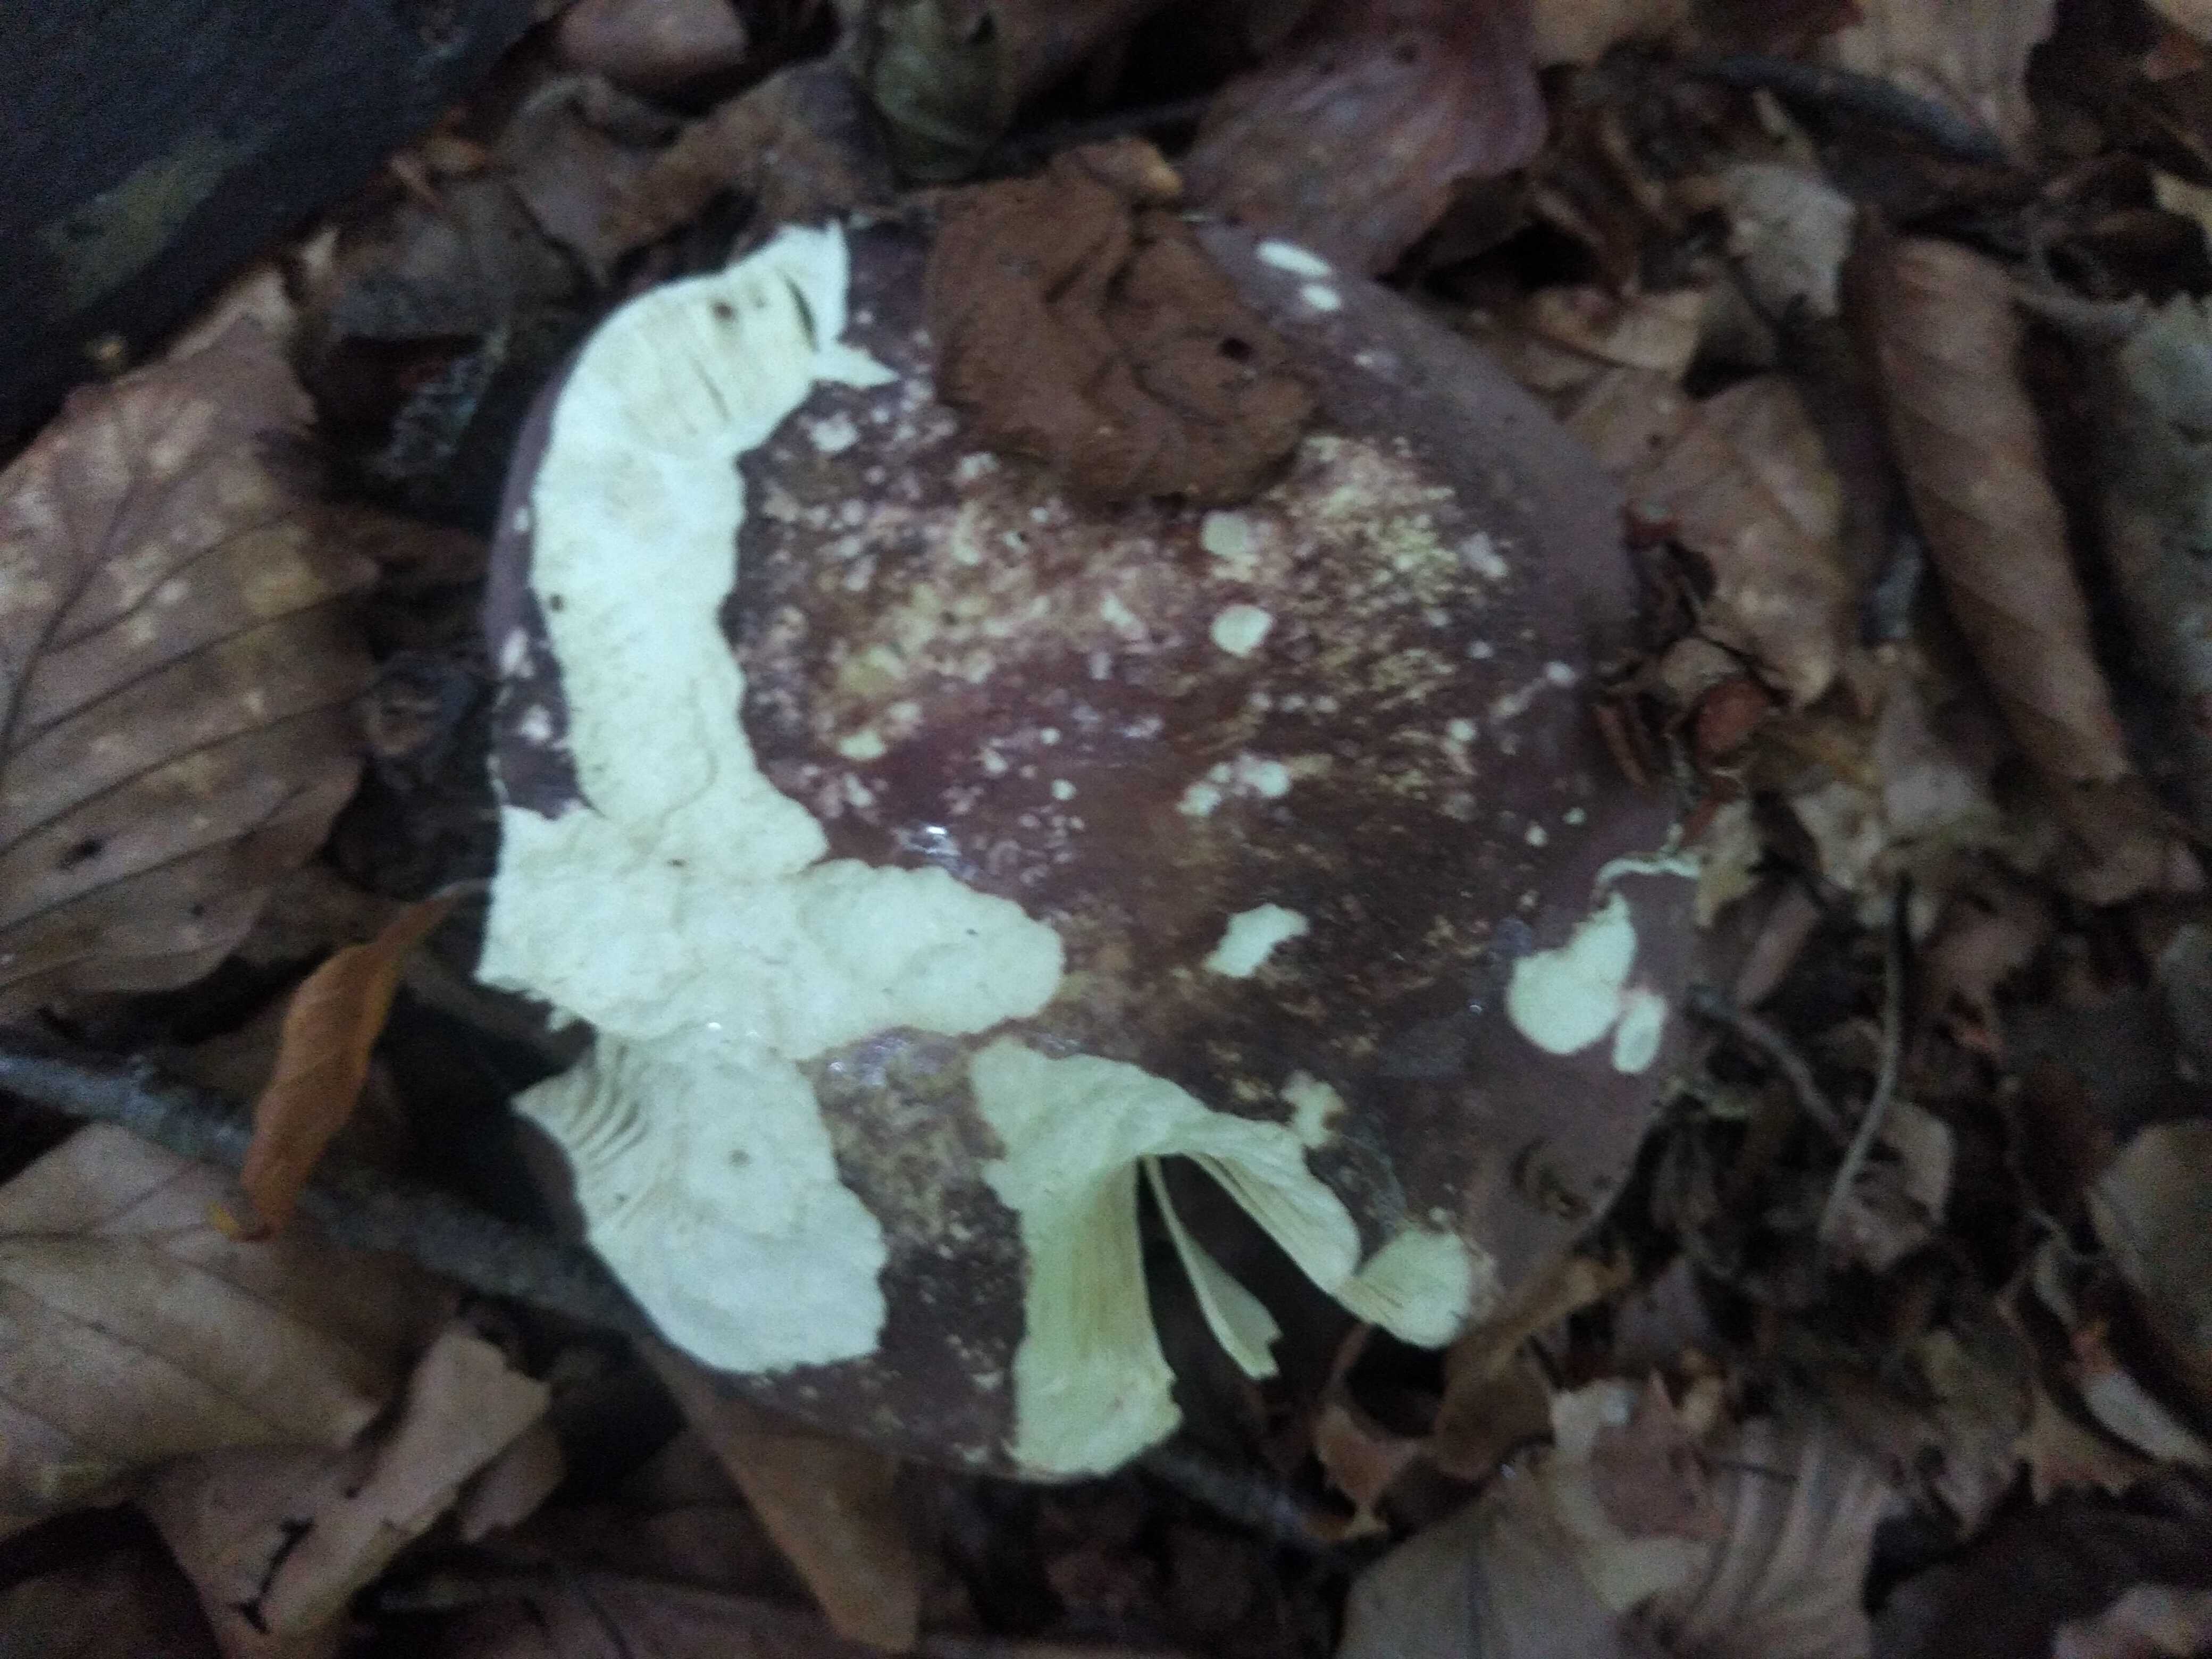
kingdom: Fungi
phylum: Basidiomycota
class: Agaricomycetes
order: Russulales
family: Russulaceae
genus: Russula
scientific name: Russula olivacea
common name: stor skørhat
